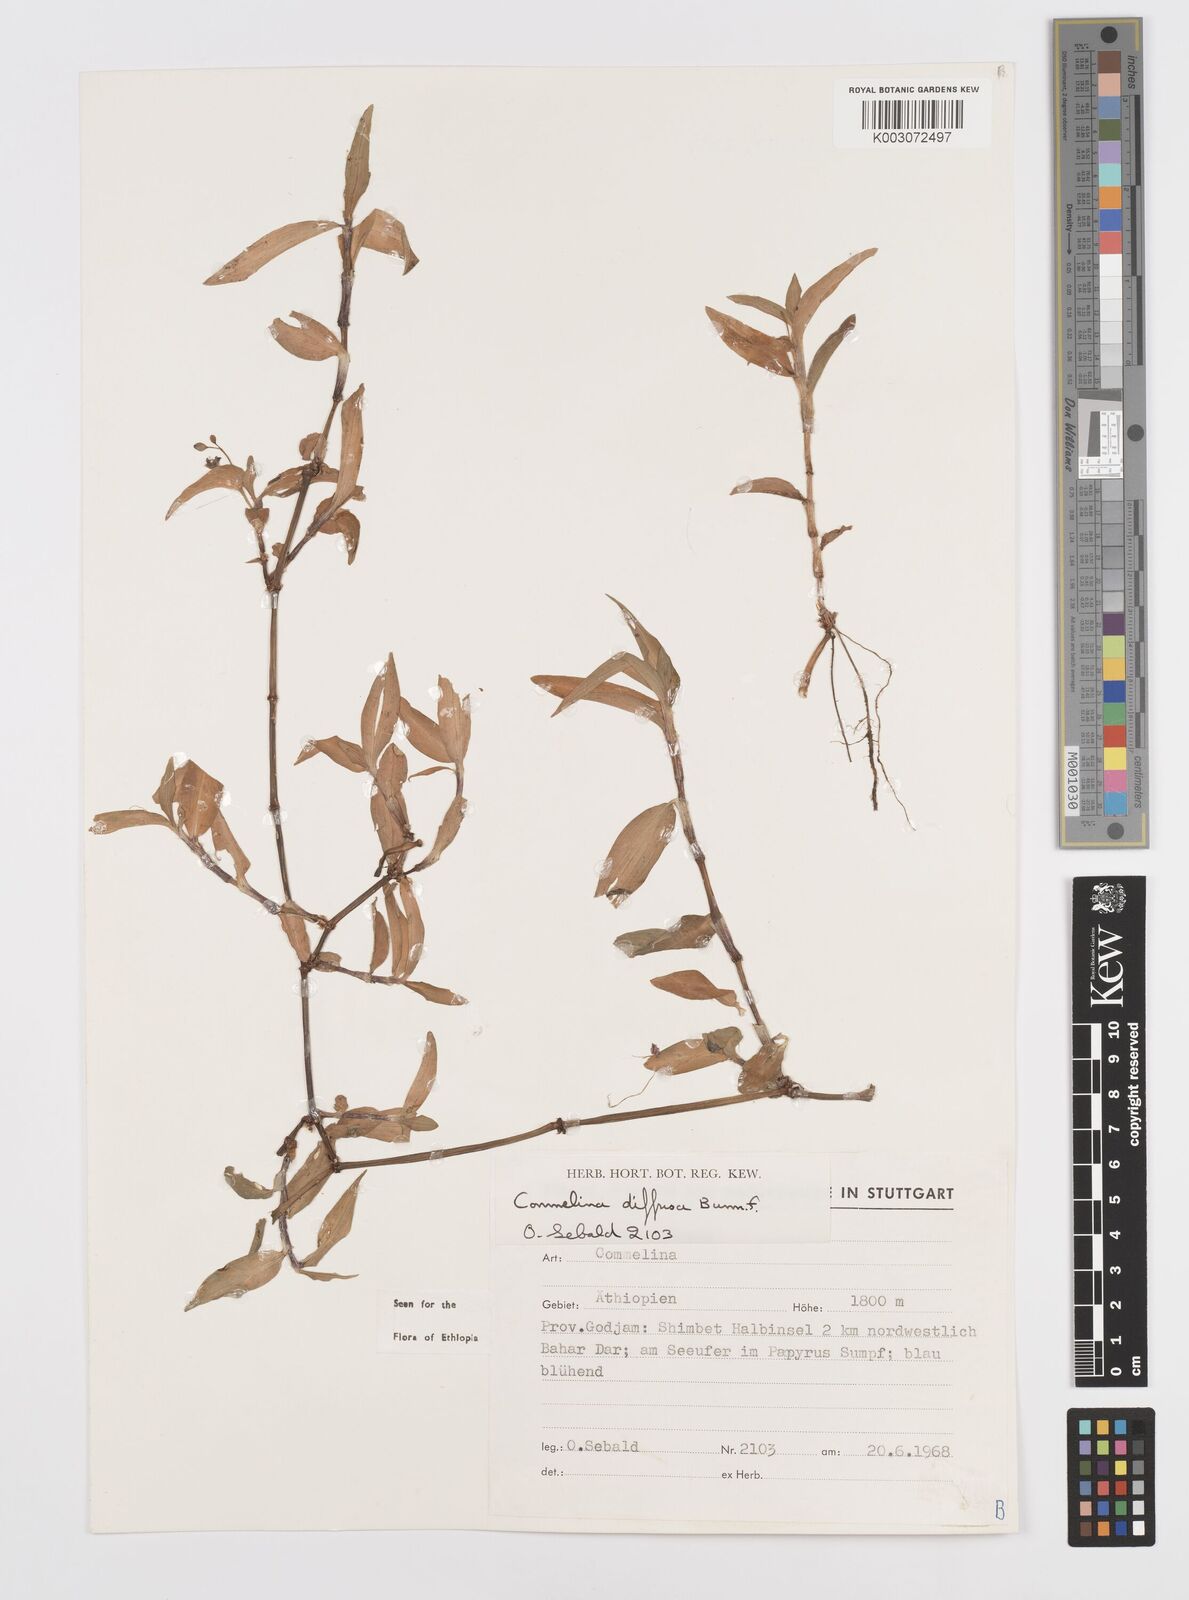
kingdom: Plantae
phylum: Tracheophyta
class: Liliopsida
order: Commelinales
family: Commelinaceae
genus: Commelina
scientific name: Commelina diffusa
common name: Climbing dayflower
